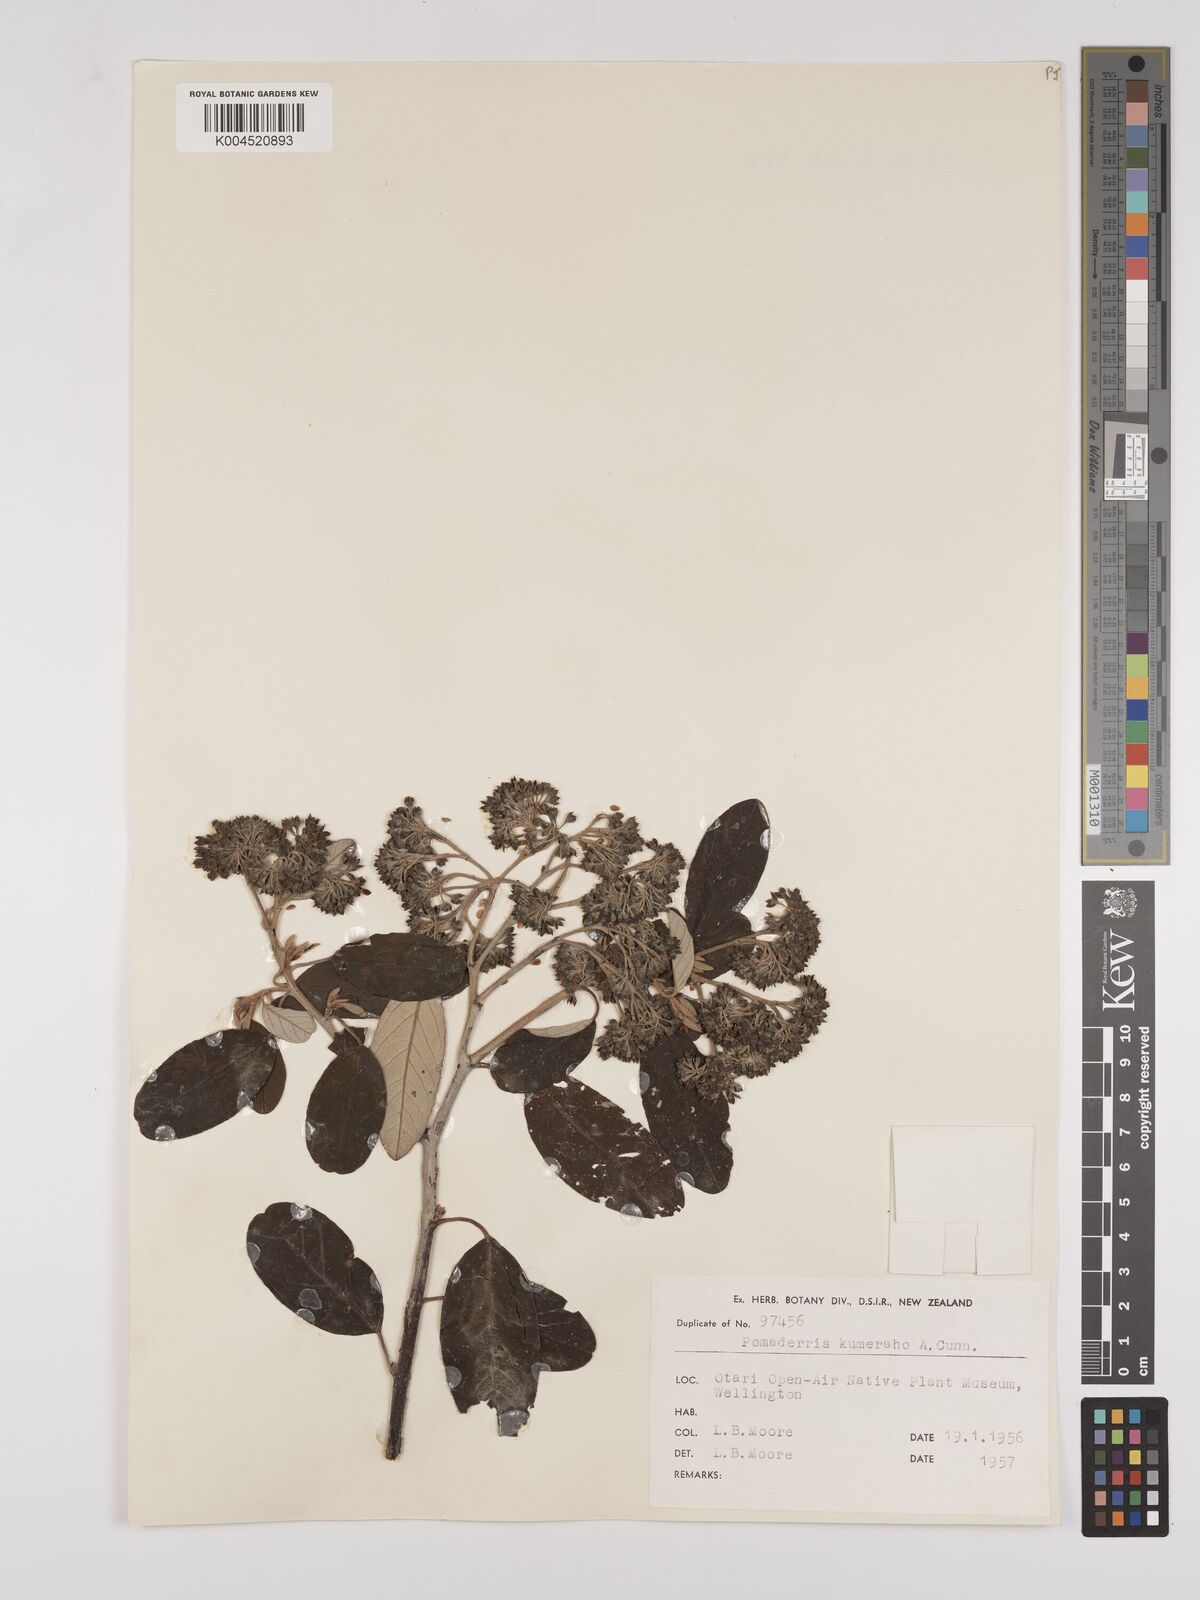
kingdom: Plantae
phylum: Tracheophyta
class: Magnoliopsida
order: Rosales
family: Rhamnaceae
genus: Pomaderris
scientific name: Pomaderris kumeraho
